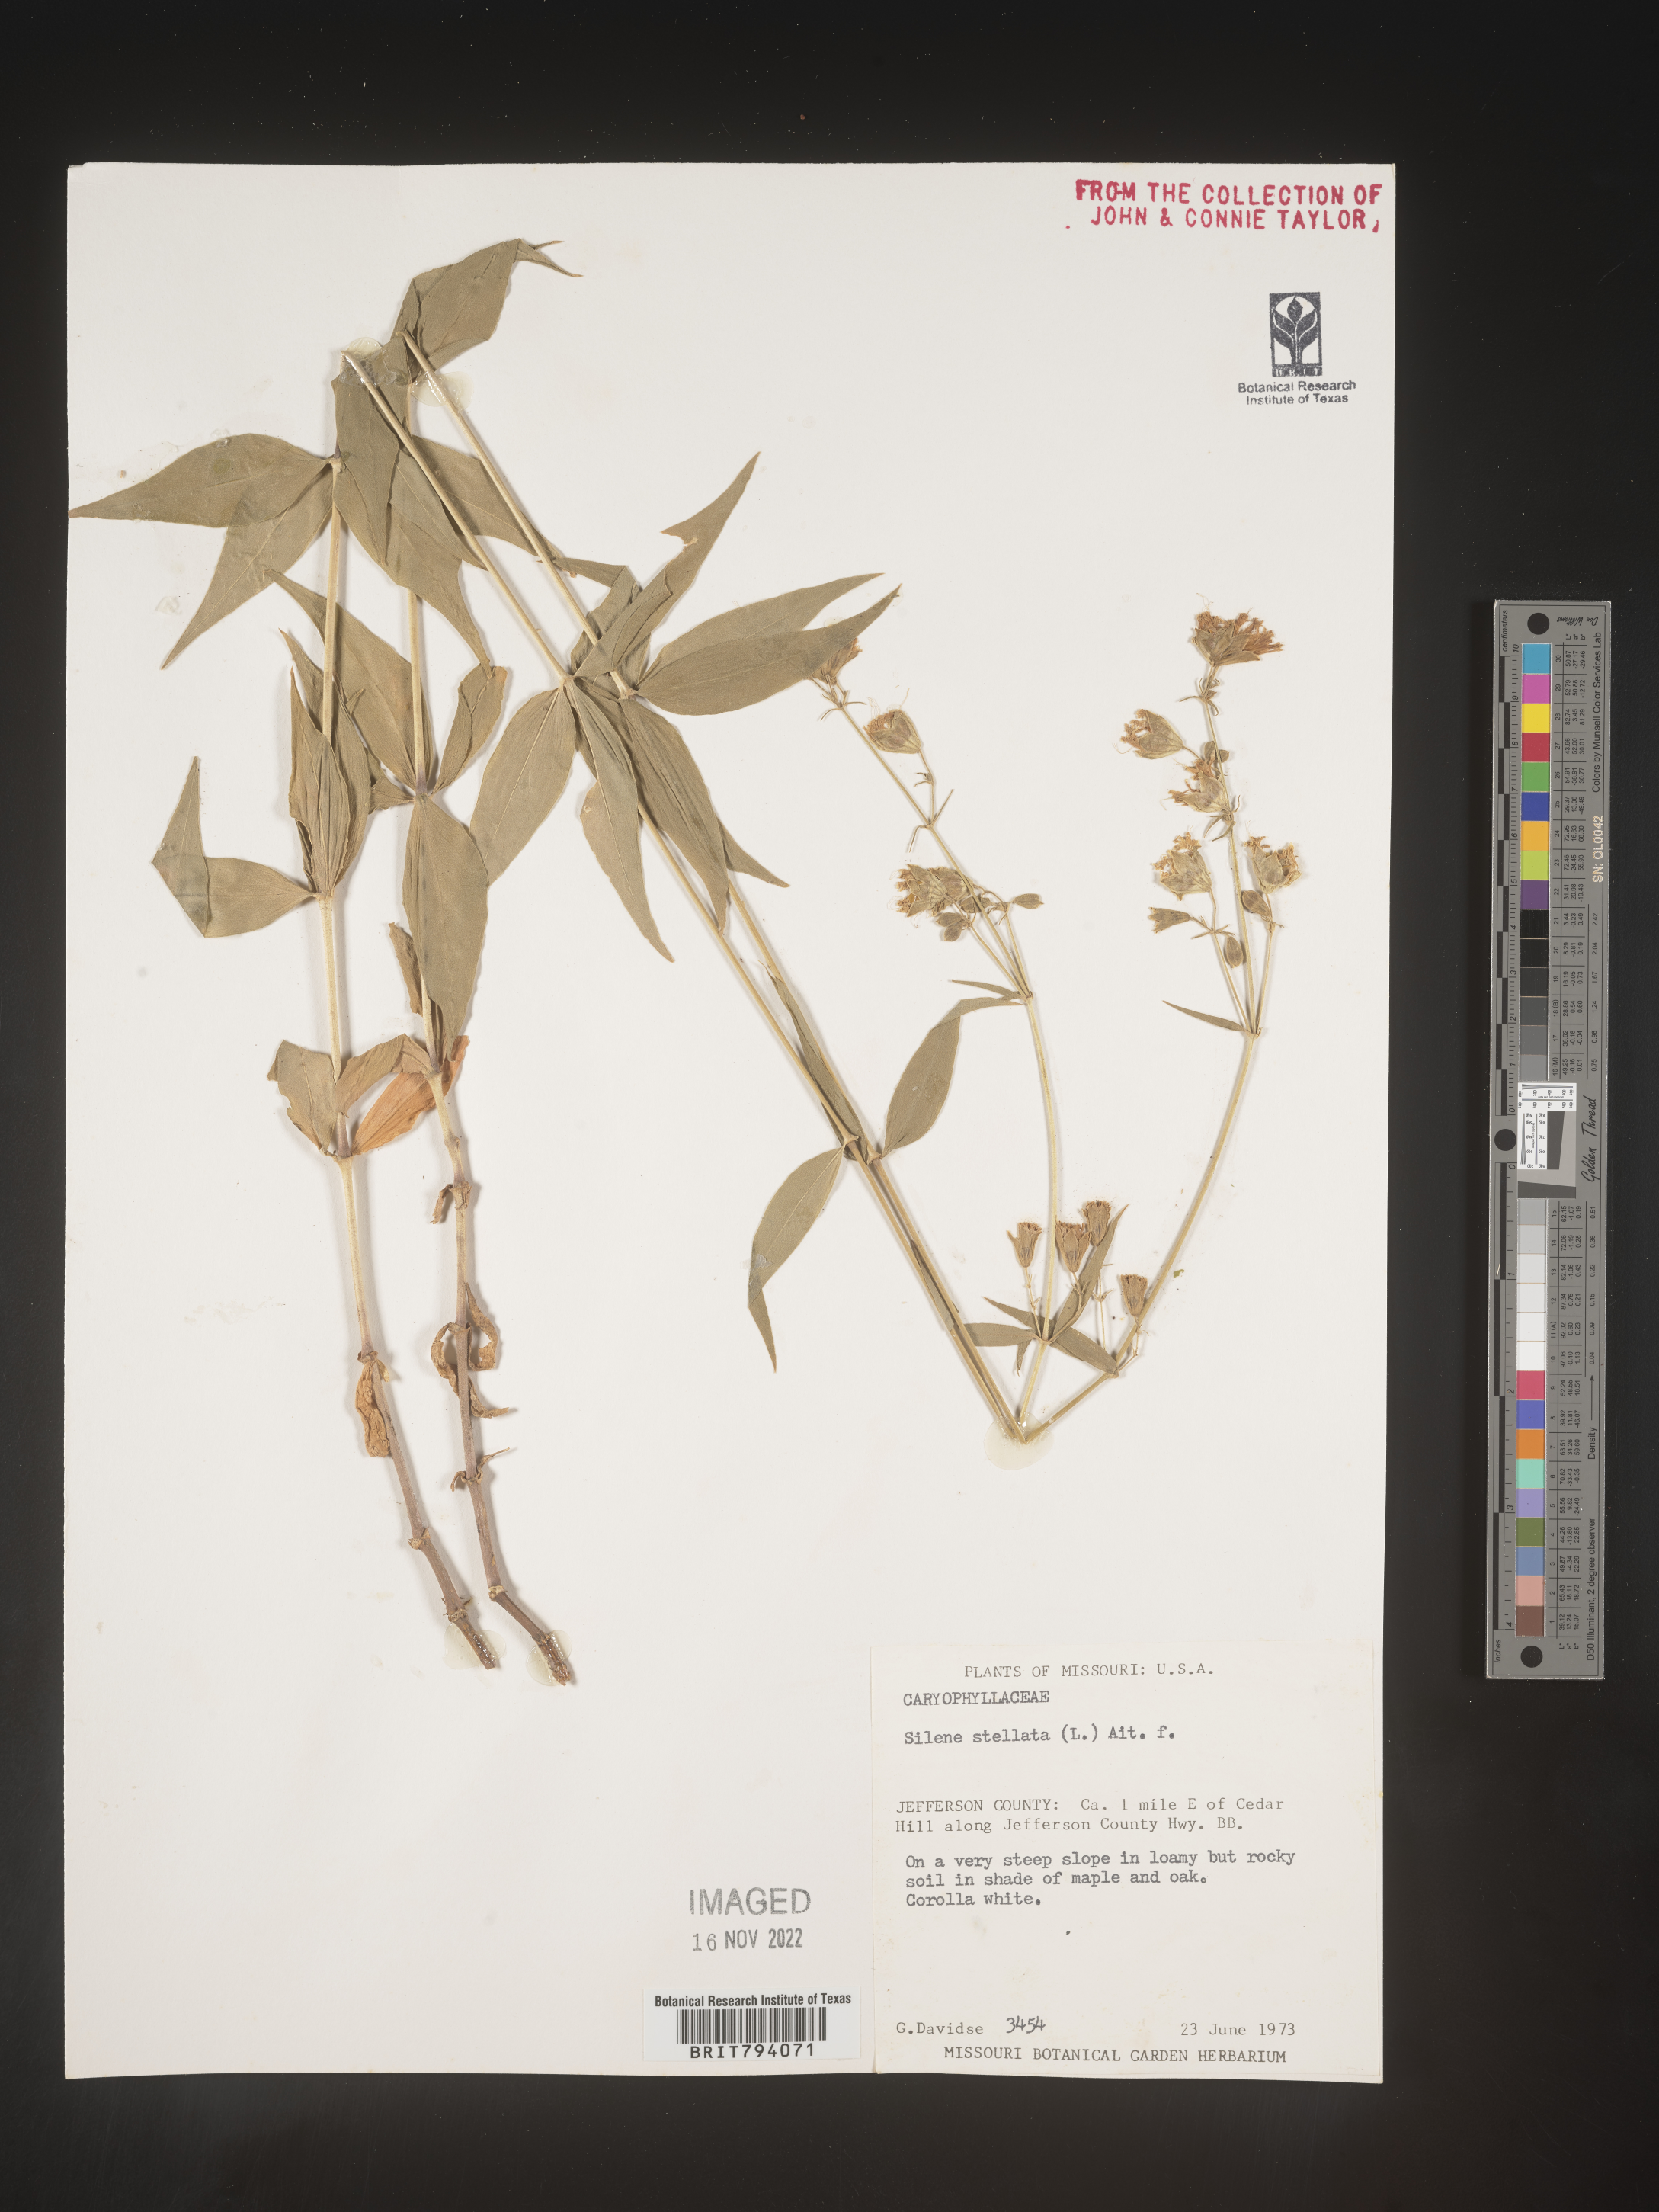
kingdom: Plantae
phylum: Tracheophyta
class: Magnoliopsida
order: Caryophyllales
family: Caryophyllaceae
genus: Silene
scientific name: Silene stellata
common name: Starry campion
